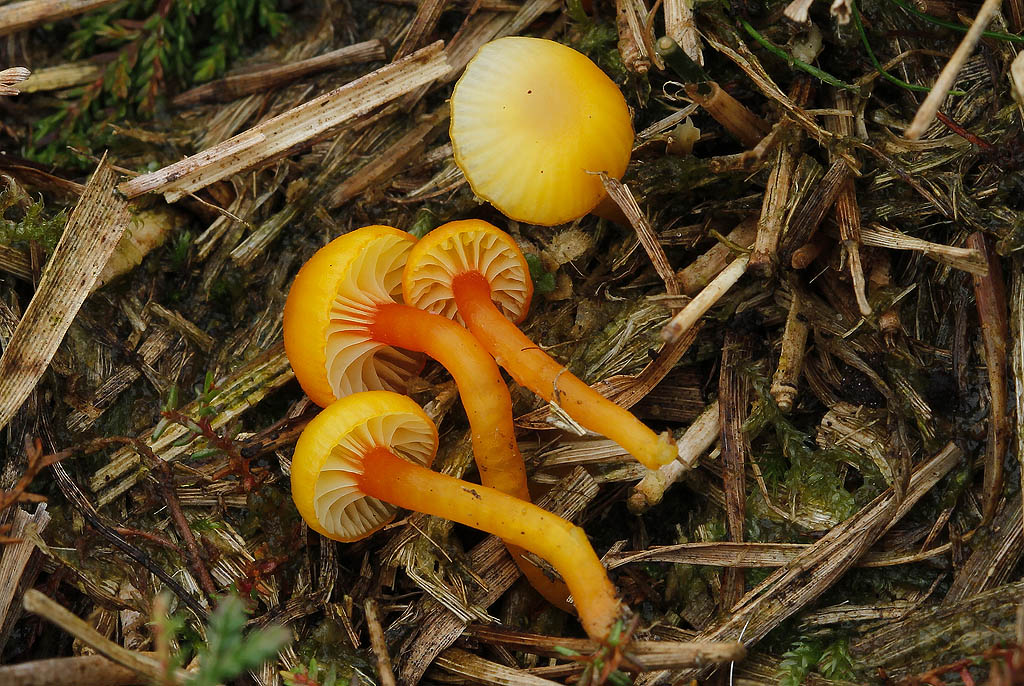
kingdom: Fungi
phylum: Basidiomycota
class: Agaricomycetes
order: Agaricales
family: Hygrophoraceae
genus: Hygrocybe
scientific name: Hygrocybe insipida
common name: liden vokshat
